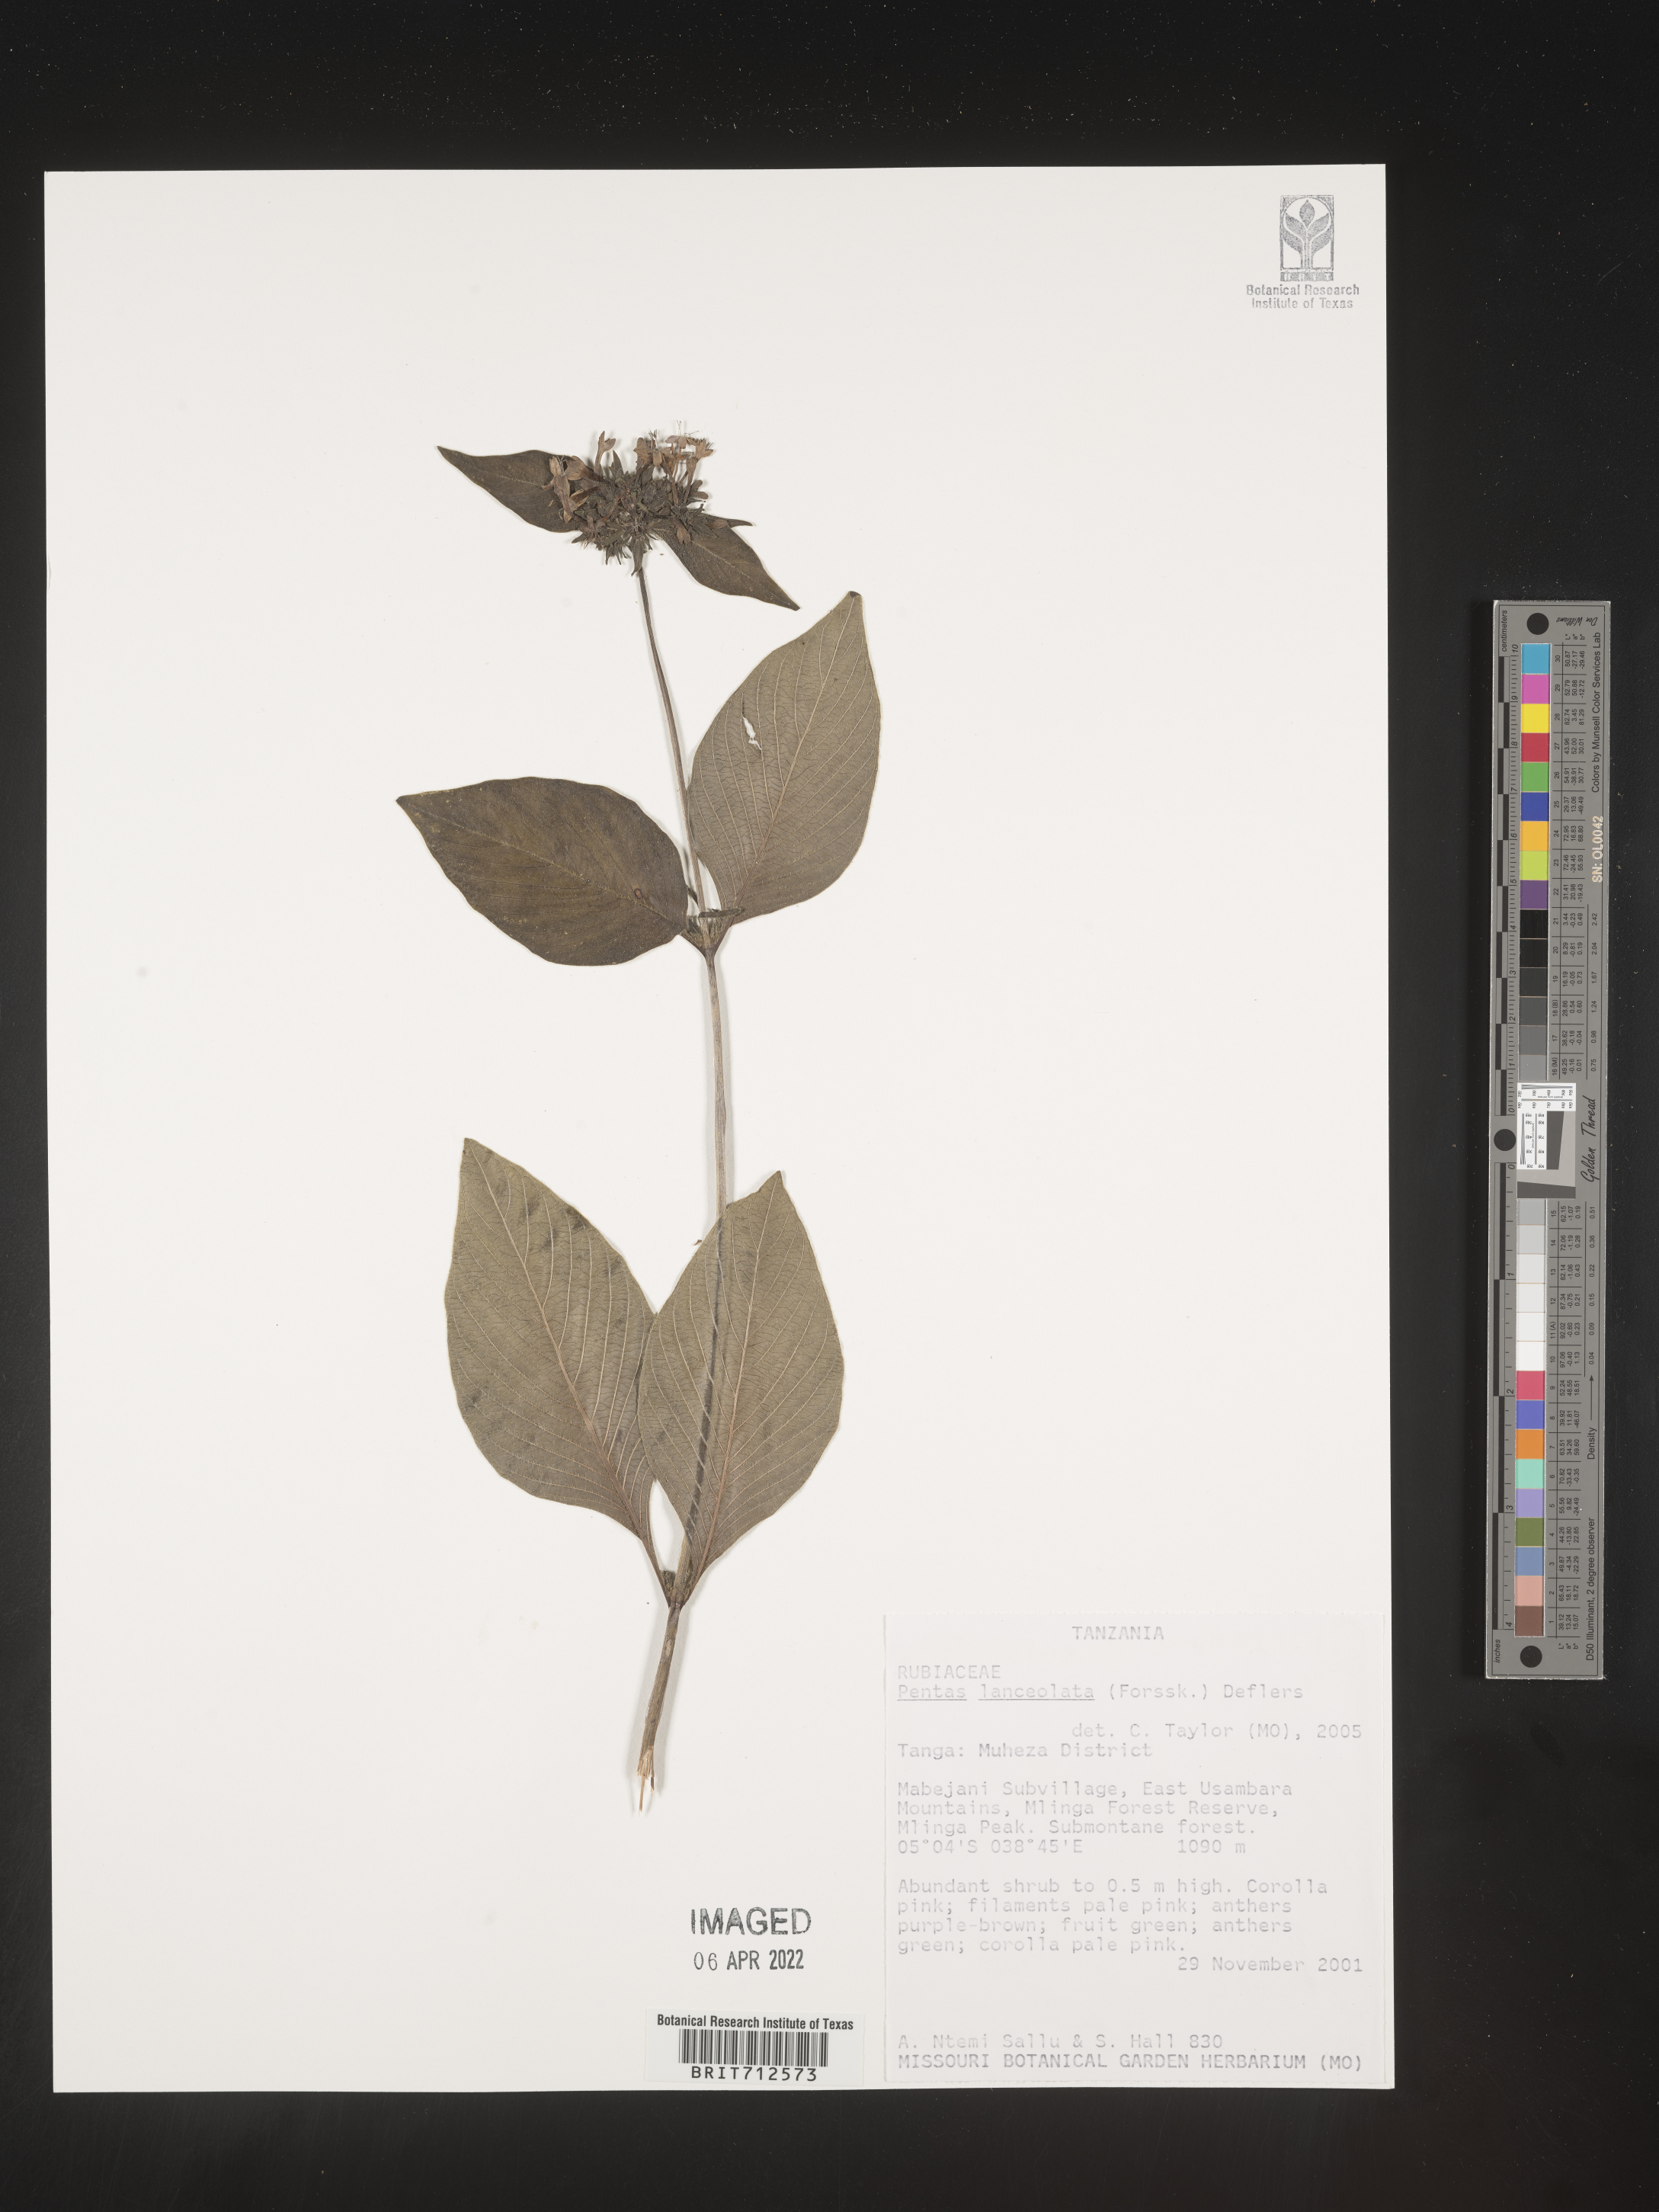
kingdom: Plantae
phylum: Tracheophyta
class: Magnoliopsida
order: Gentianales
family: Rubiaceae
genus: Pavetta
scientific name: Pavetta
